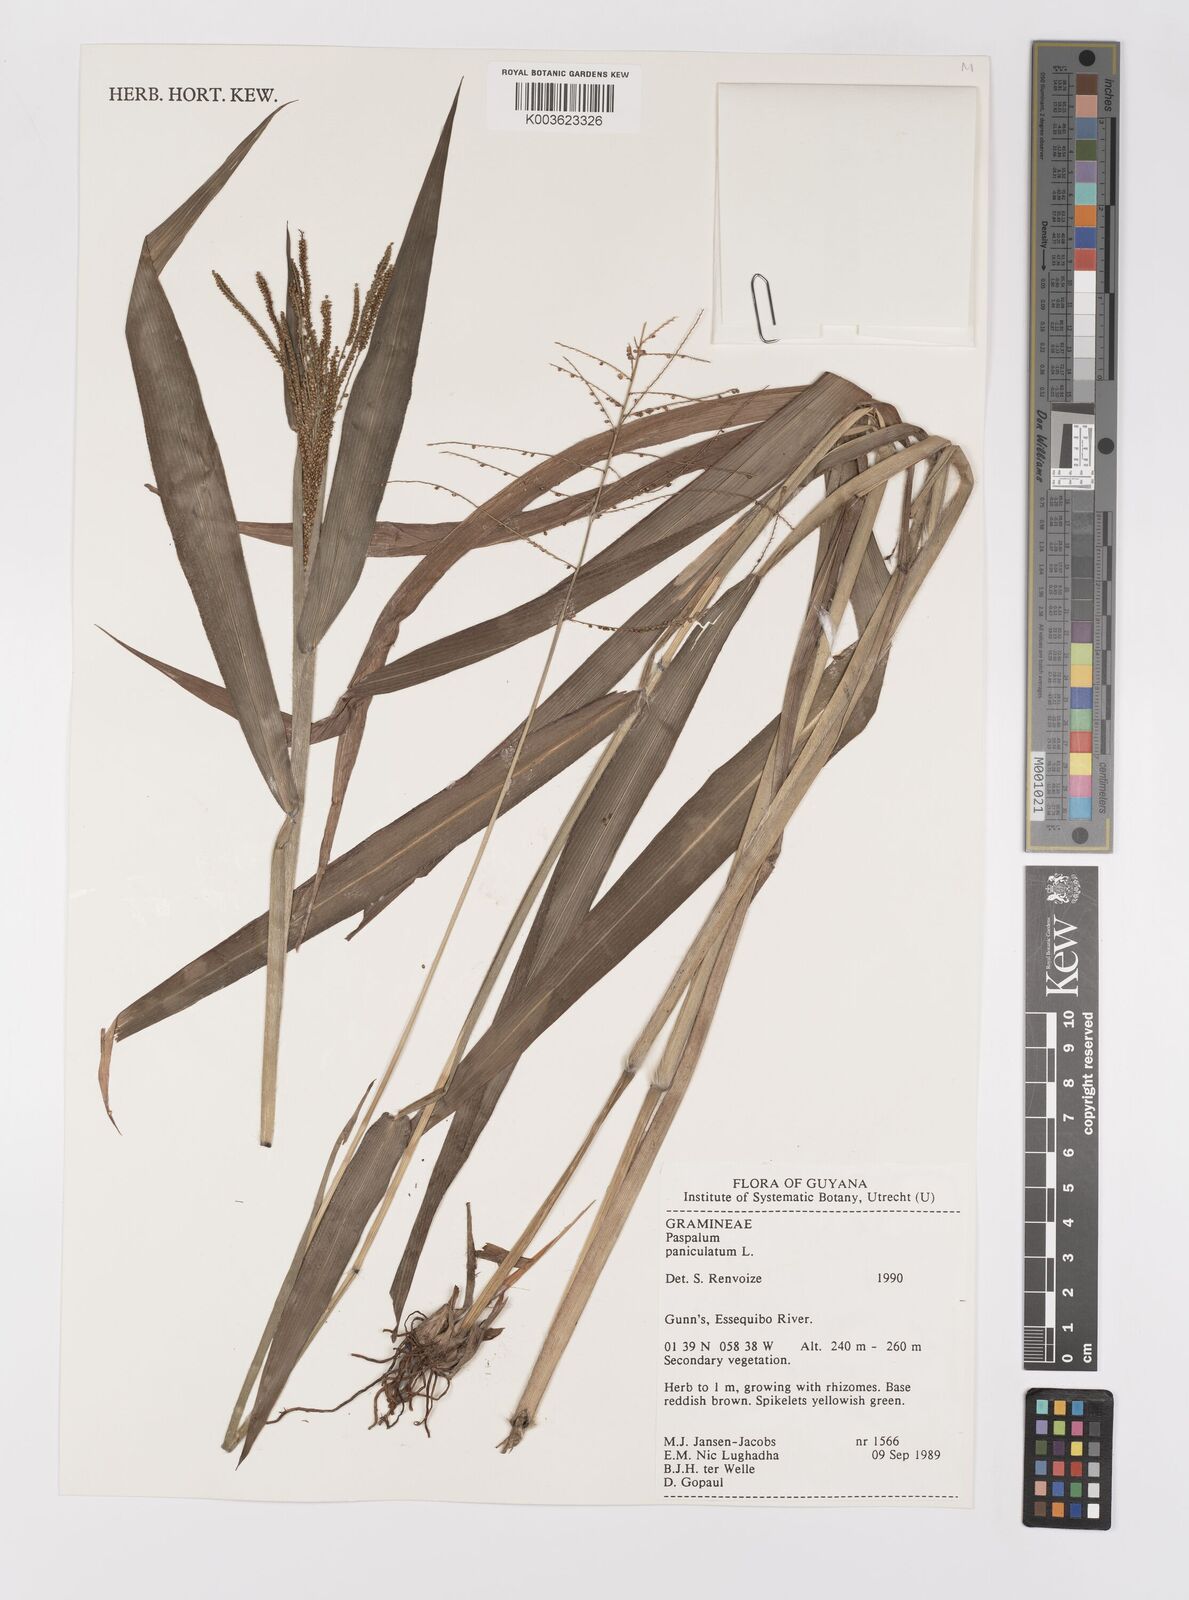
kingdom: Plantae
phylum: Tracheophyta
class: Liliopsida
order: Poales
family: Poaceae
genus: Paspalum
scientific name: Paspalum paniculatum
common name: Arrocillo
